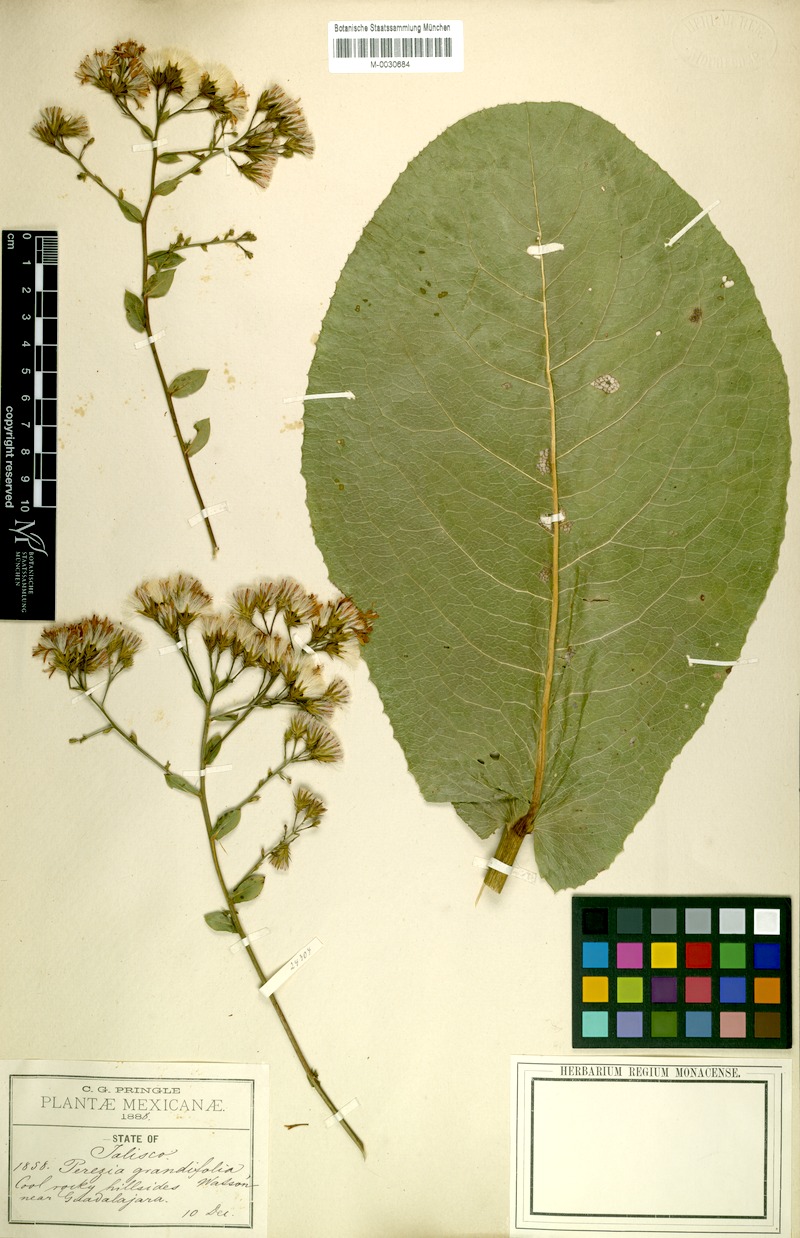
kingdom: Plantae
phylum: Tracheophyta
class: Magnoliopsida
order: Asterales
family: Asteraceae
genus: Acourtia
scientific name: Acourtia grandifolia
